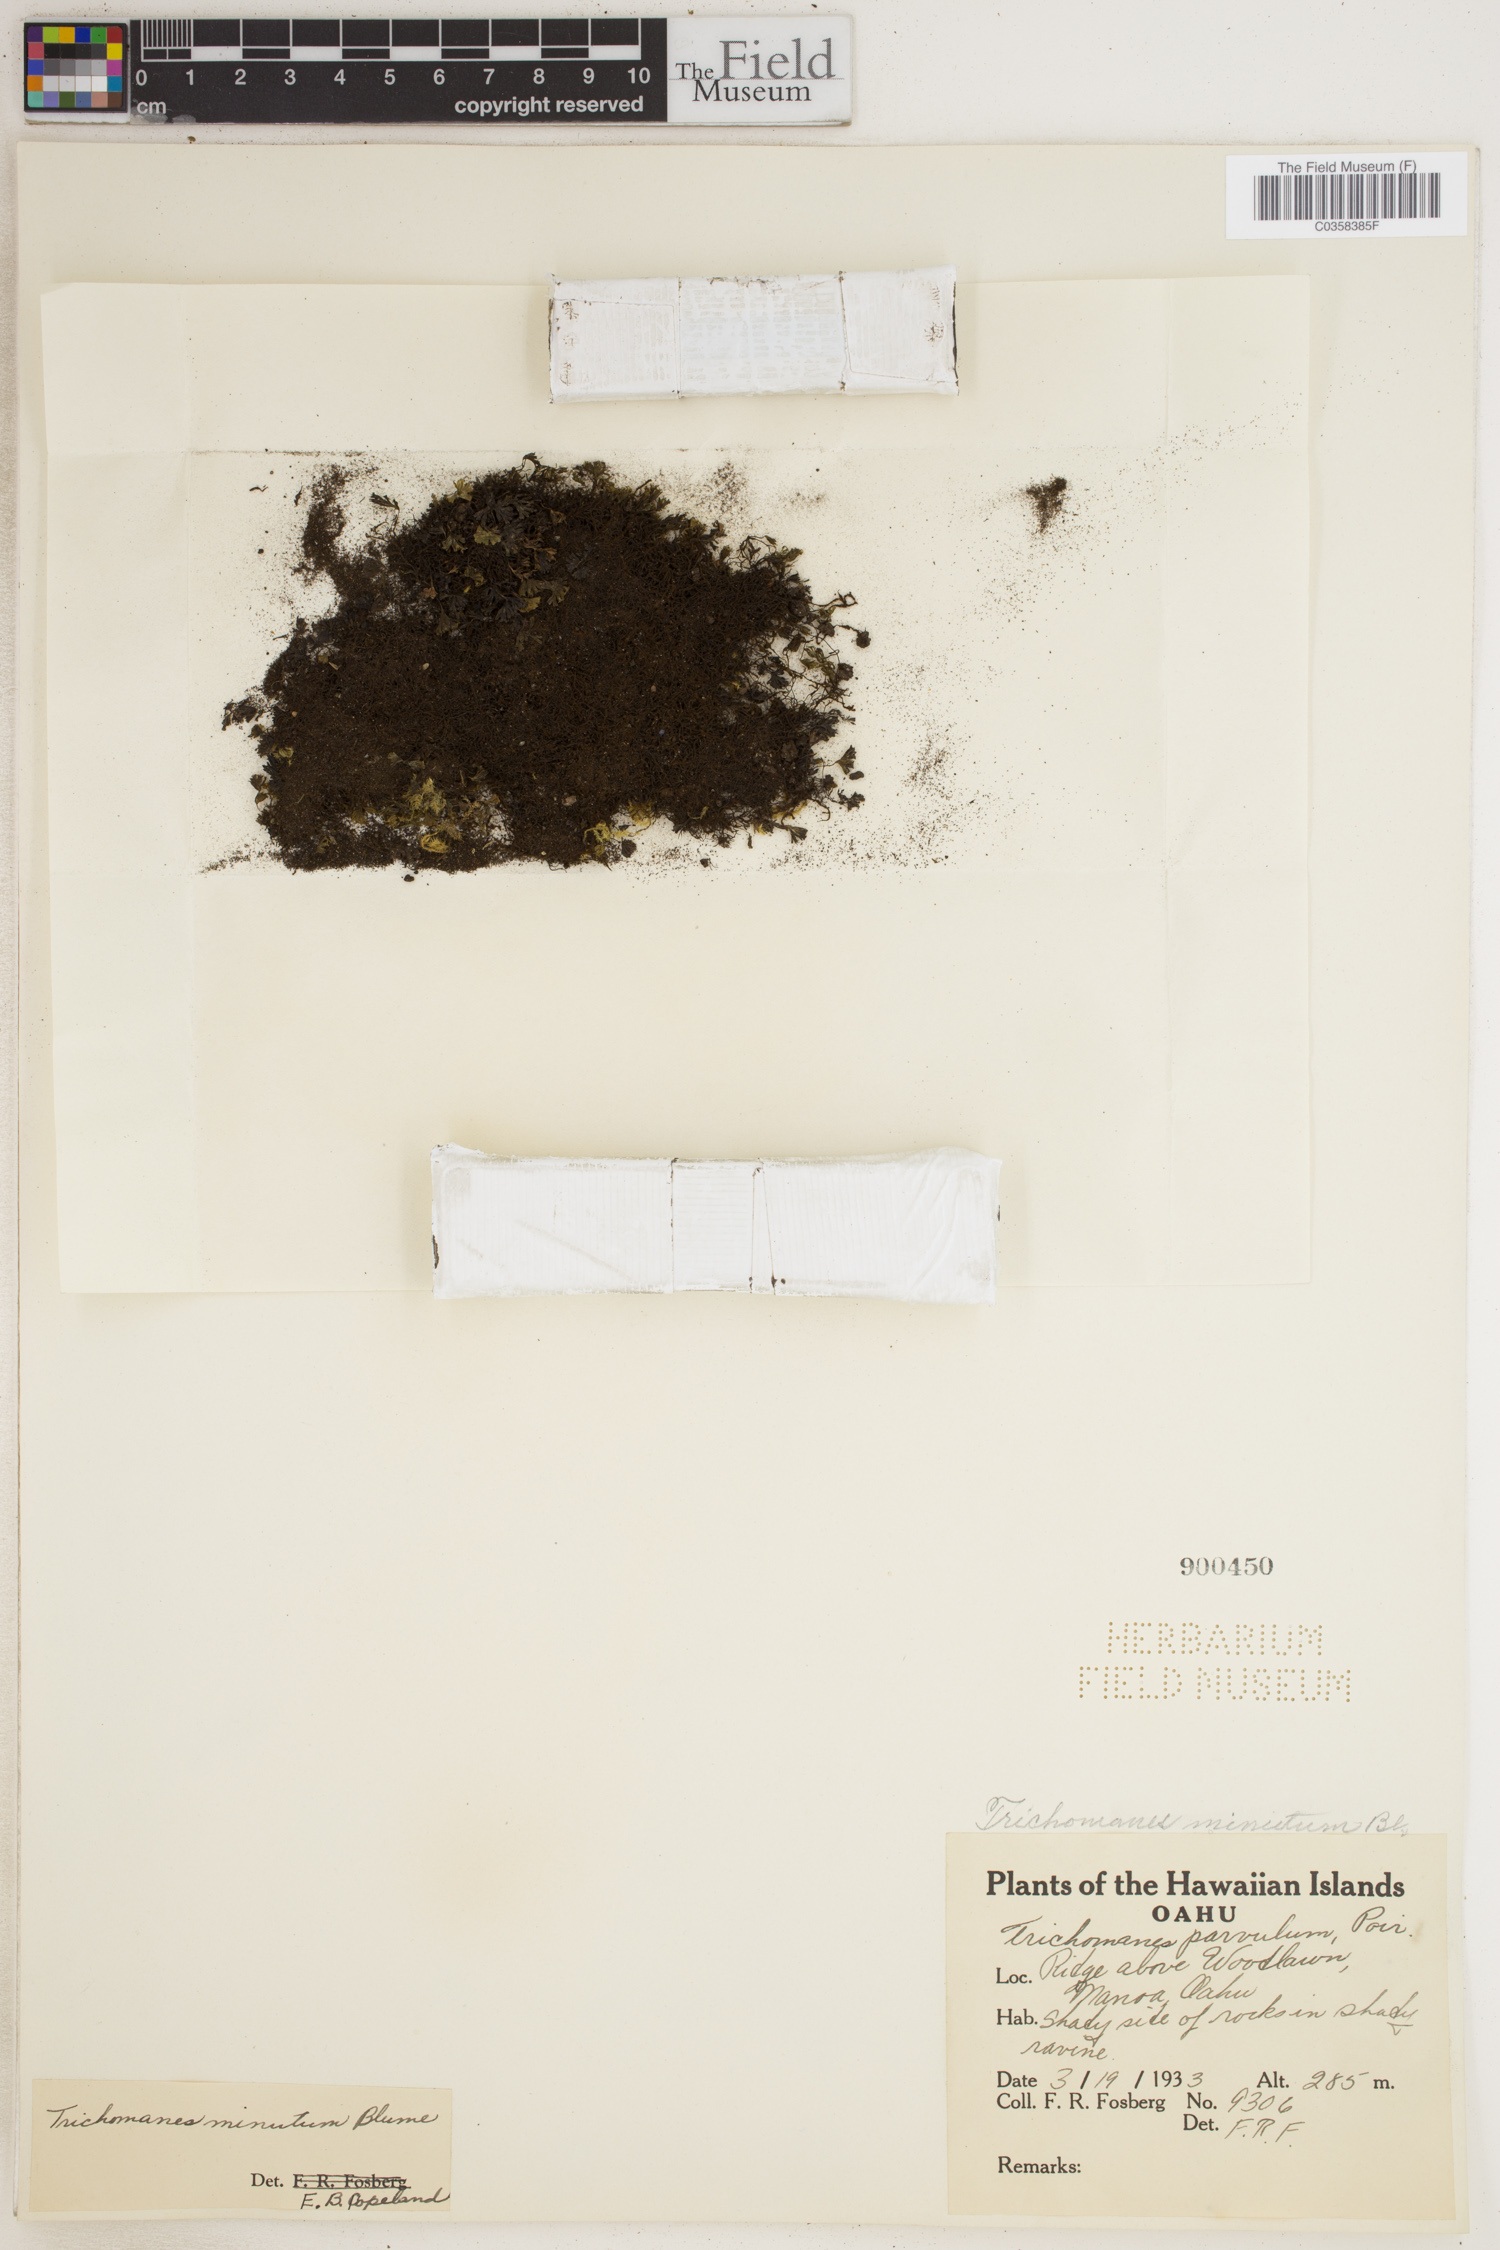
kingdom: Plantae
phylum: Tracheophyta
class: Polypodiopsida
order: Hymenophyllales
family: Hymenophyllaceae
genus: Crepidomanes
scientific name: Crepidomanes parvulum
